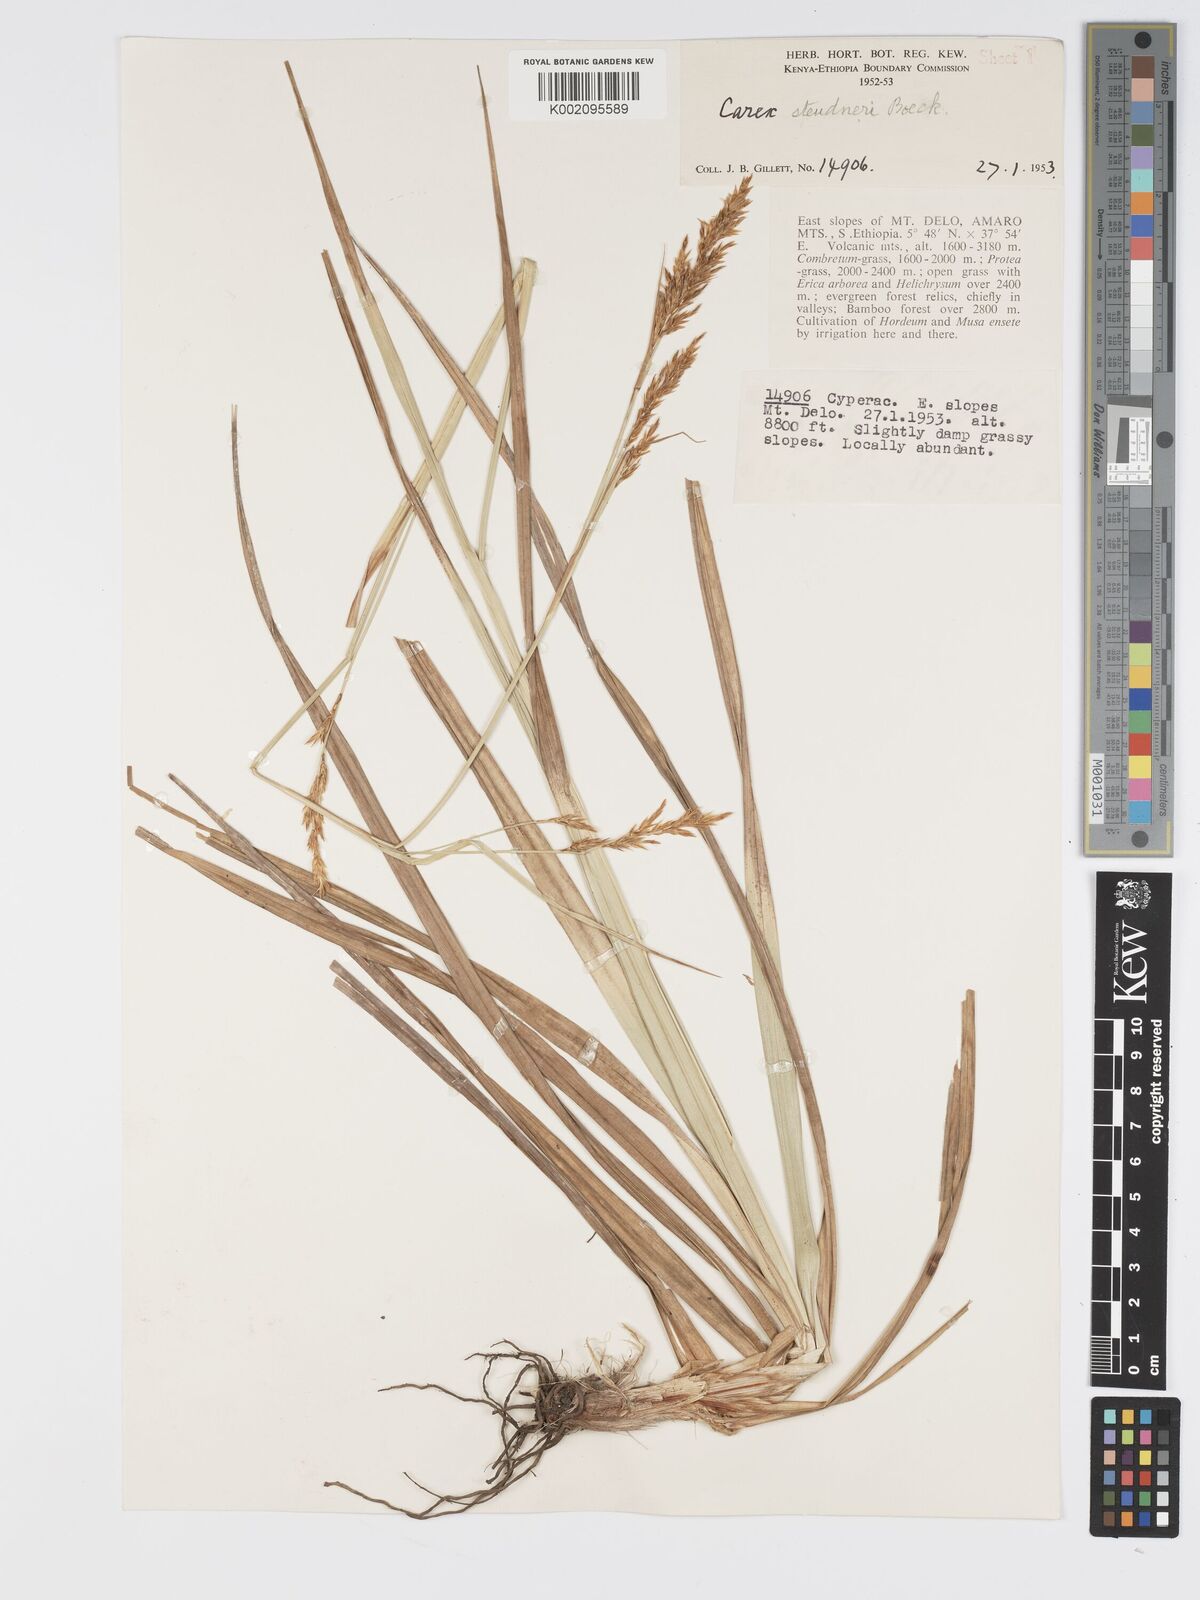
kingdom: Plantae
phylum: Tracheophyta
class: Liliopsida
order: Poales
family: Cyperaceae
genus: Carex
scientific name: Carex steudneri
